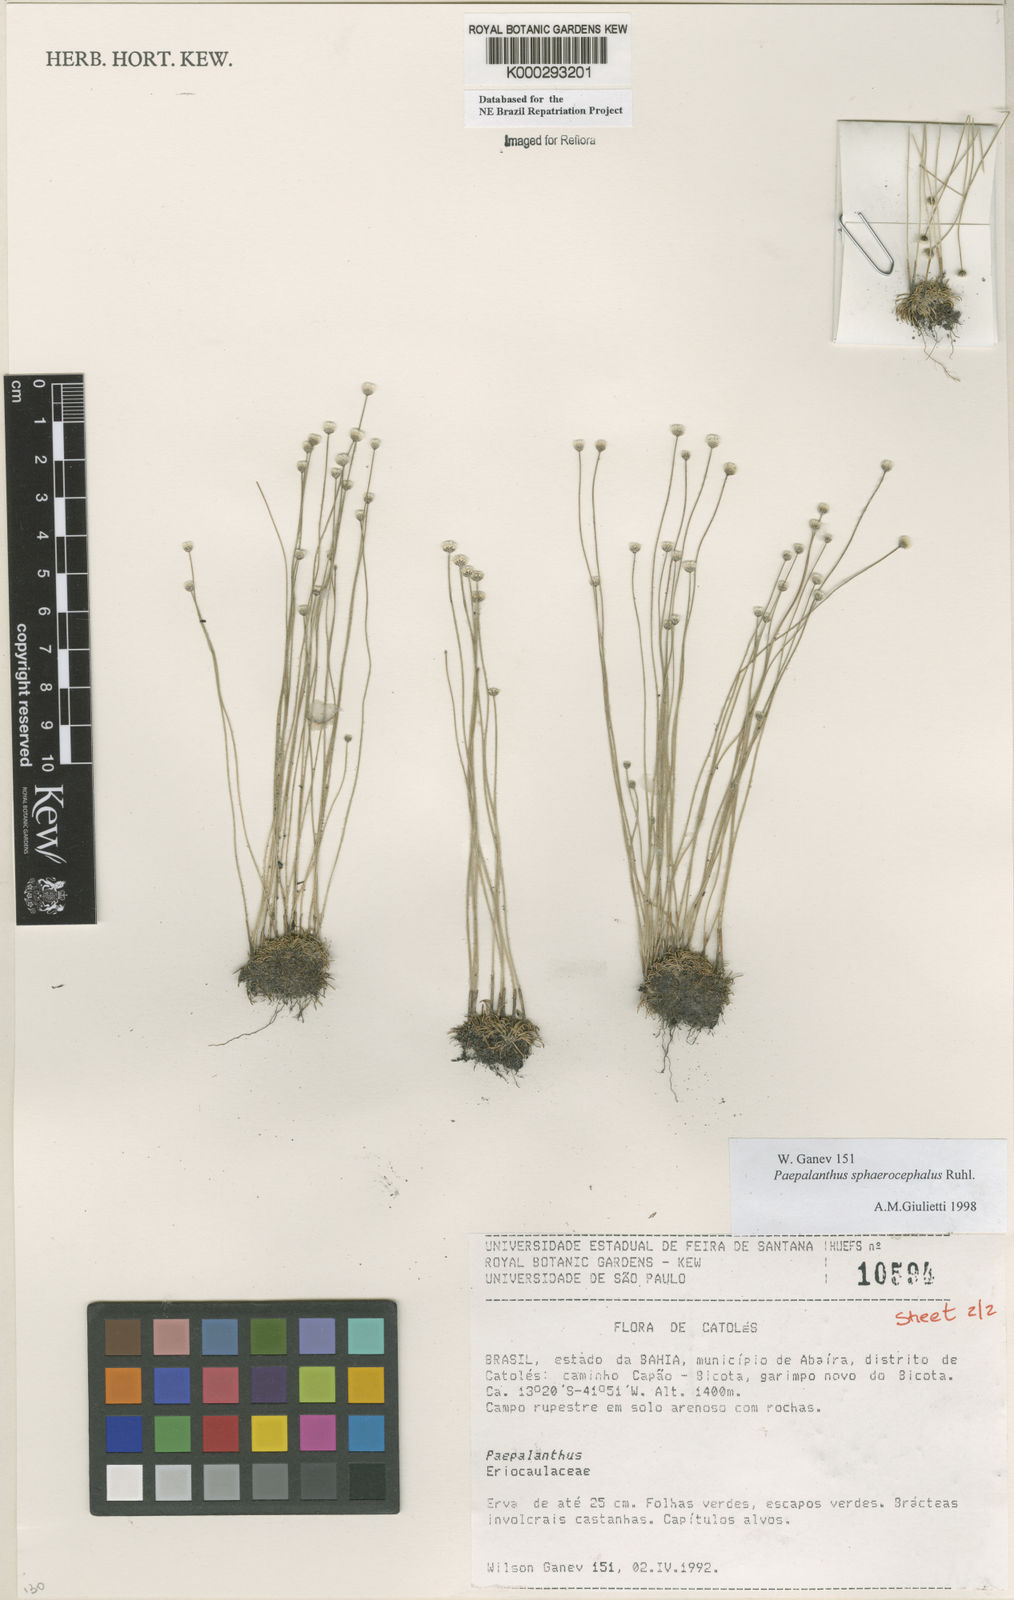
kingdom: Plantae
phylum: Tracheophyta
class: Liliopsida
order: Poales
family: Eriocaulaceae
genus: Paepalanthus
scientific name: Paepalanthus sphaerocephalus
